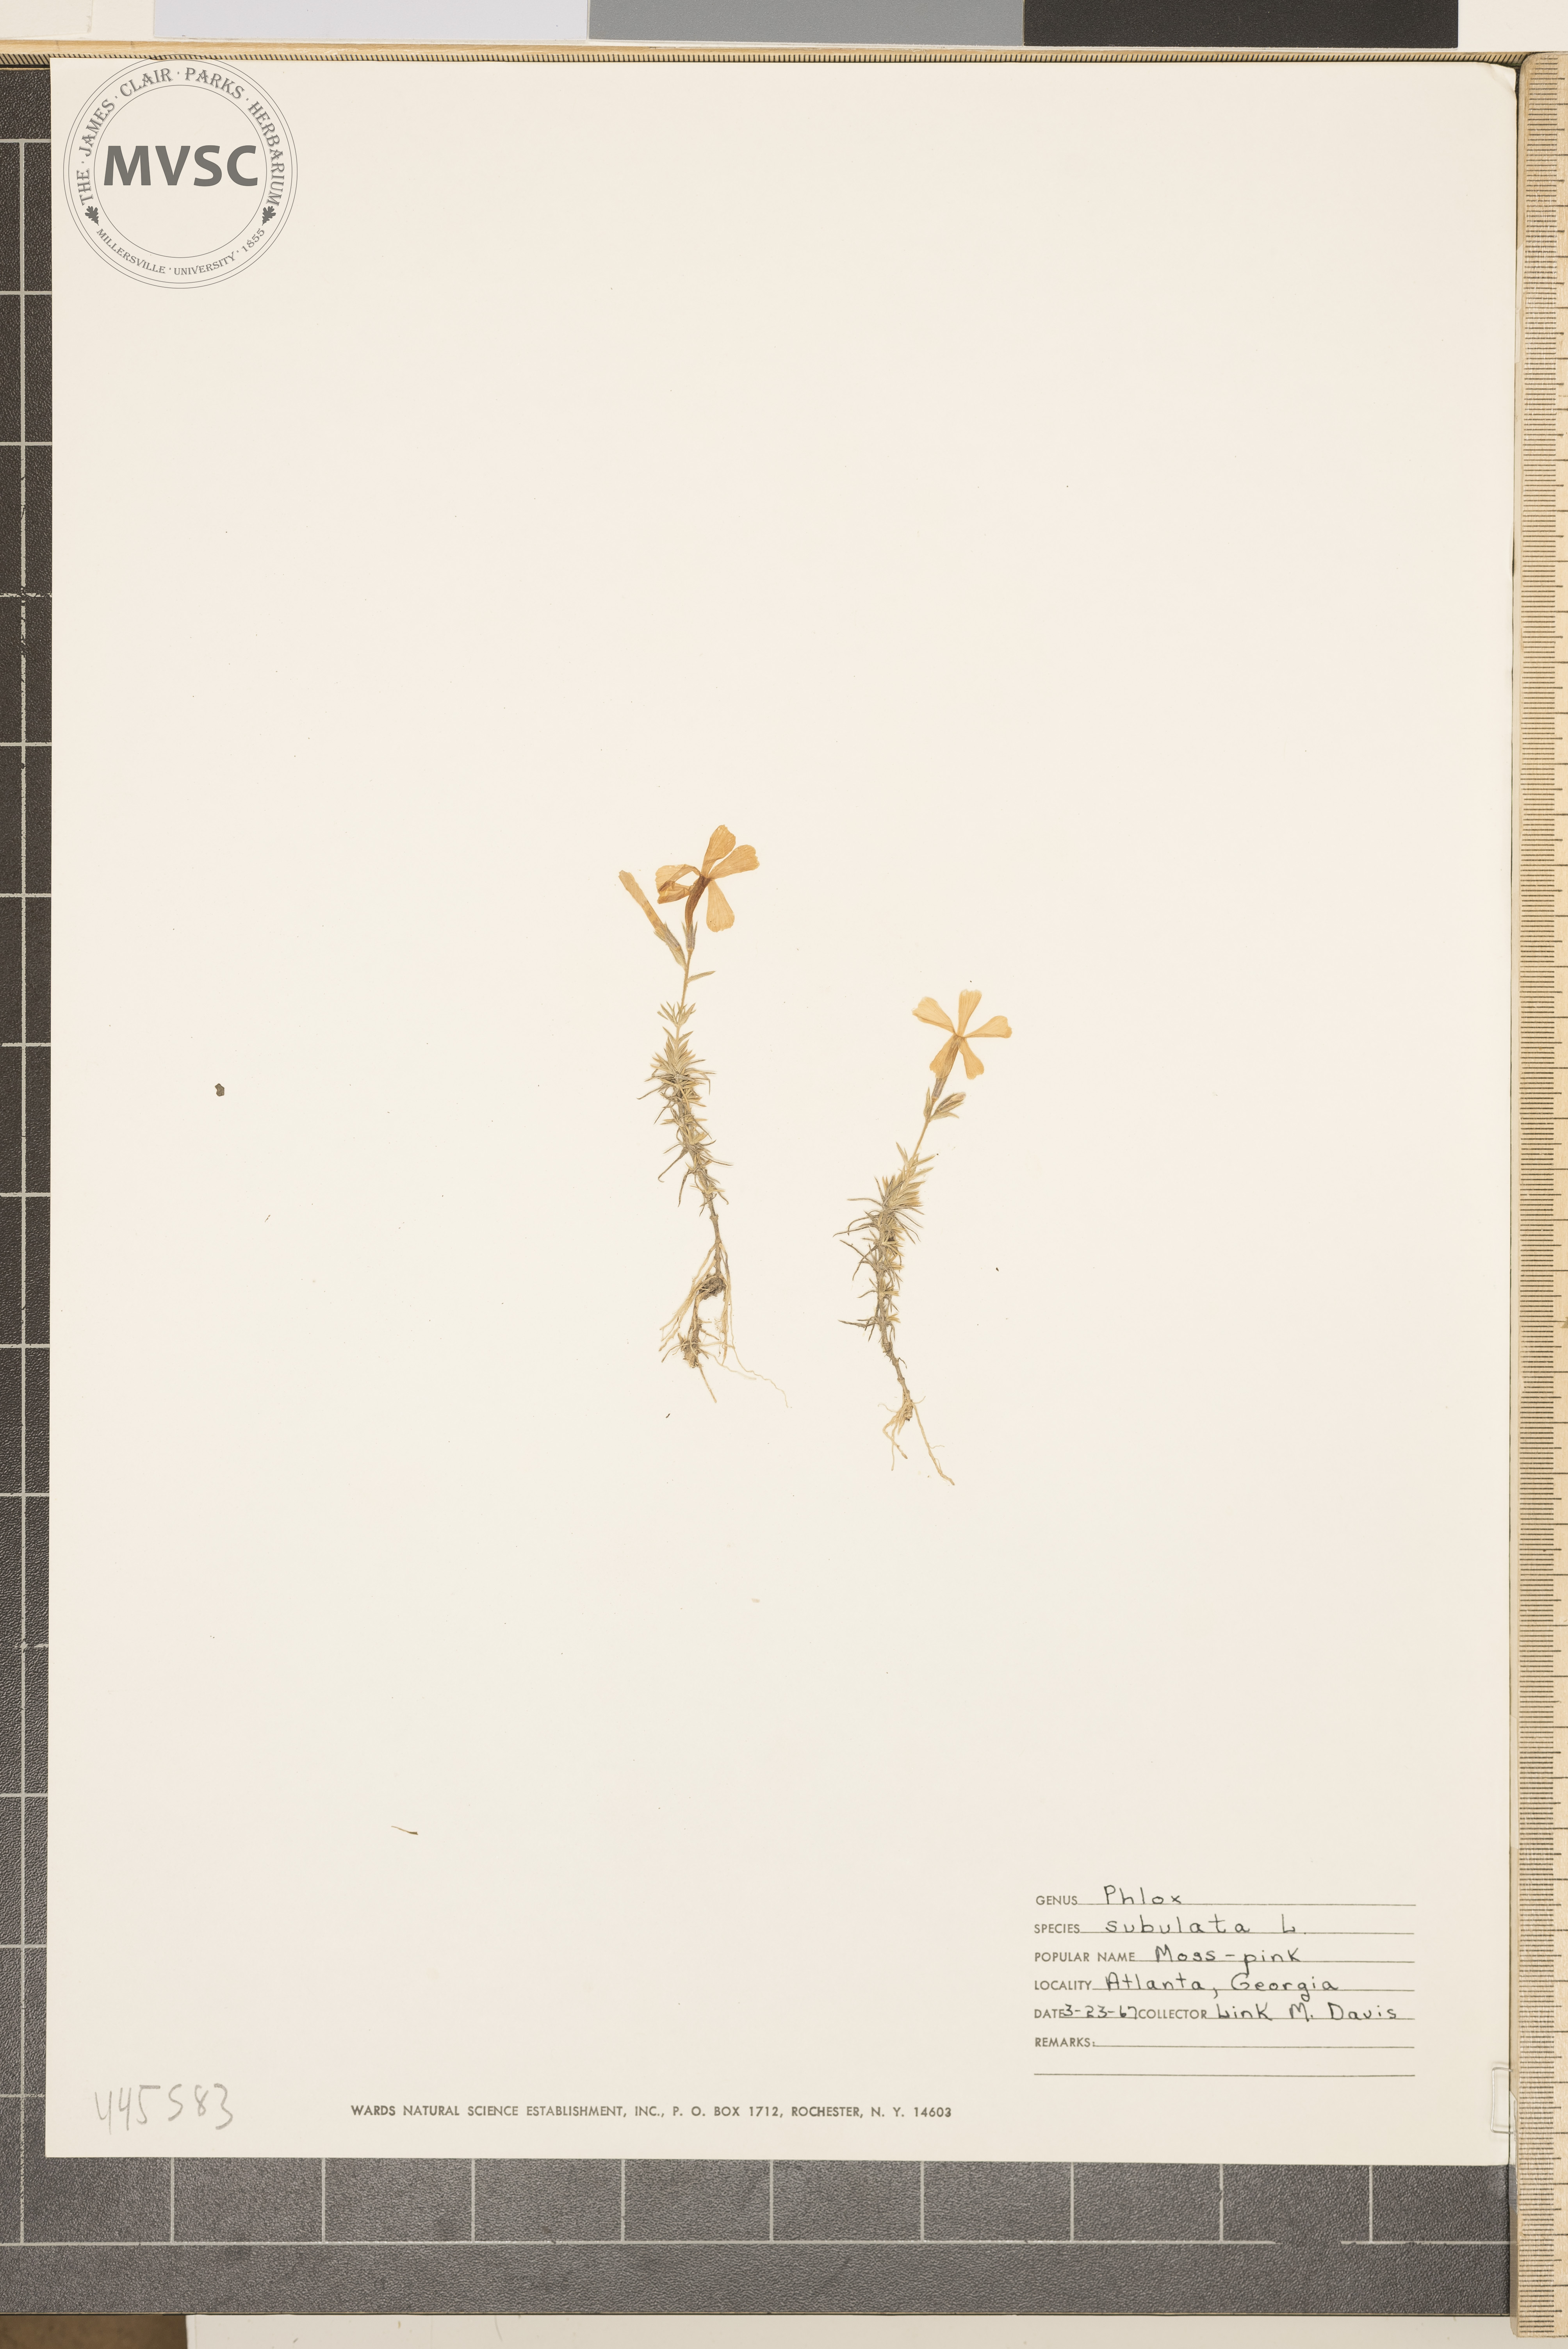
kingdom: Plantae
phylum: Tracheophyta
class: Magnoliopsida
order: Ericales
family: Polemoniaceae
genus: Phlox
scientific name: Phlox subulata
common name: Moss pink
